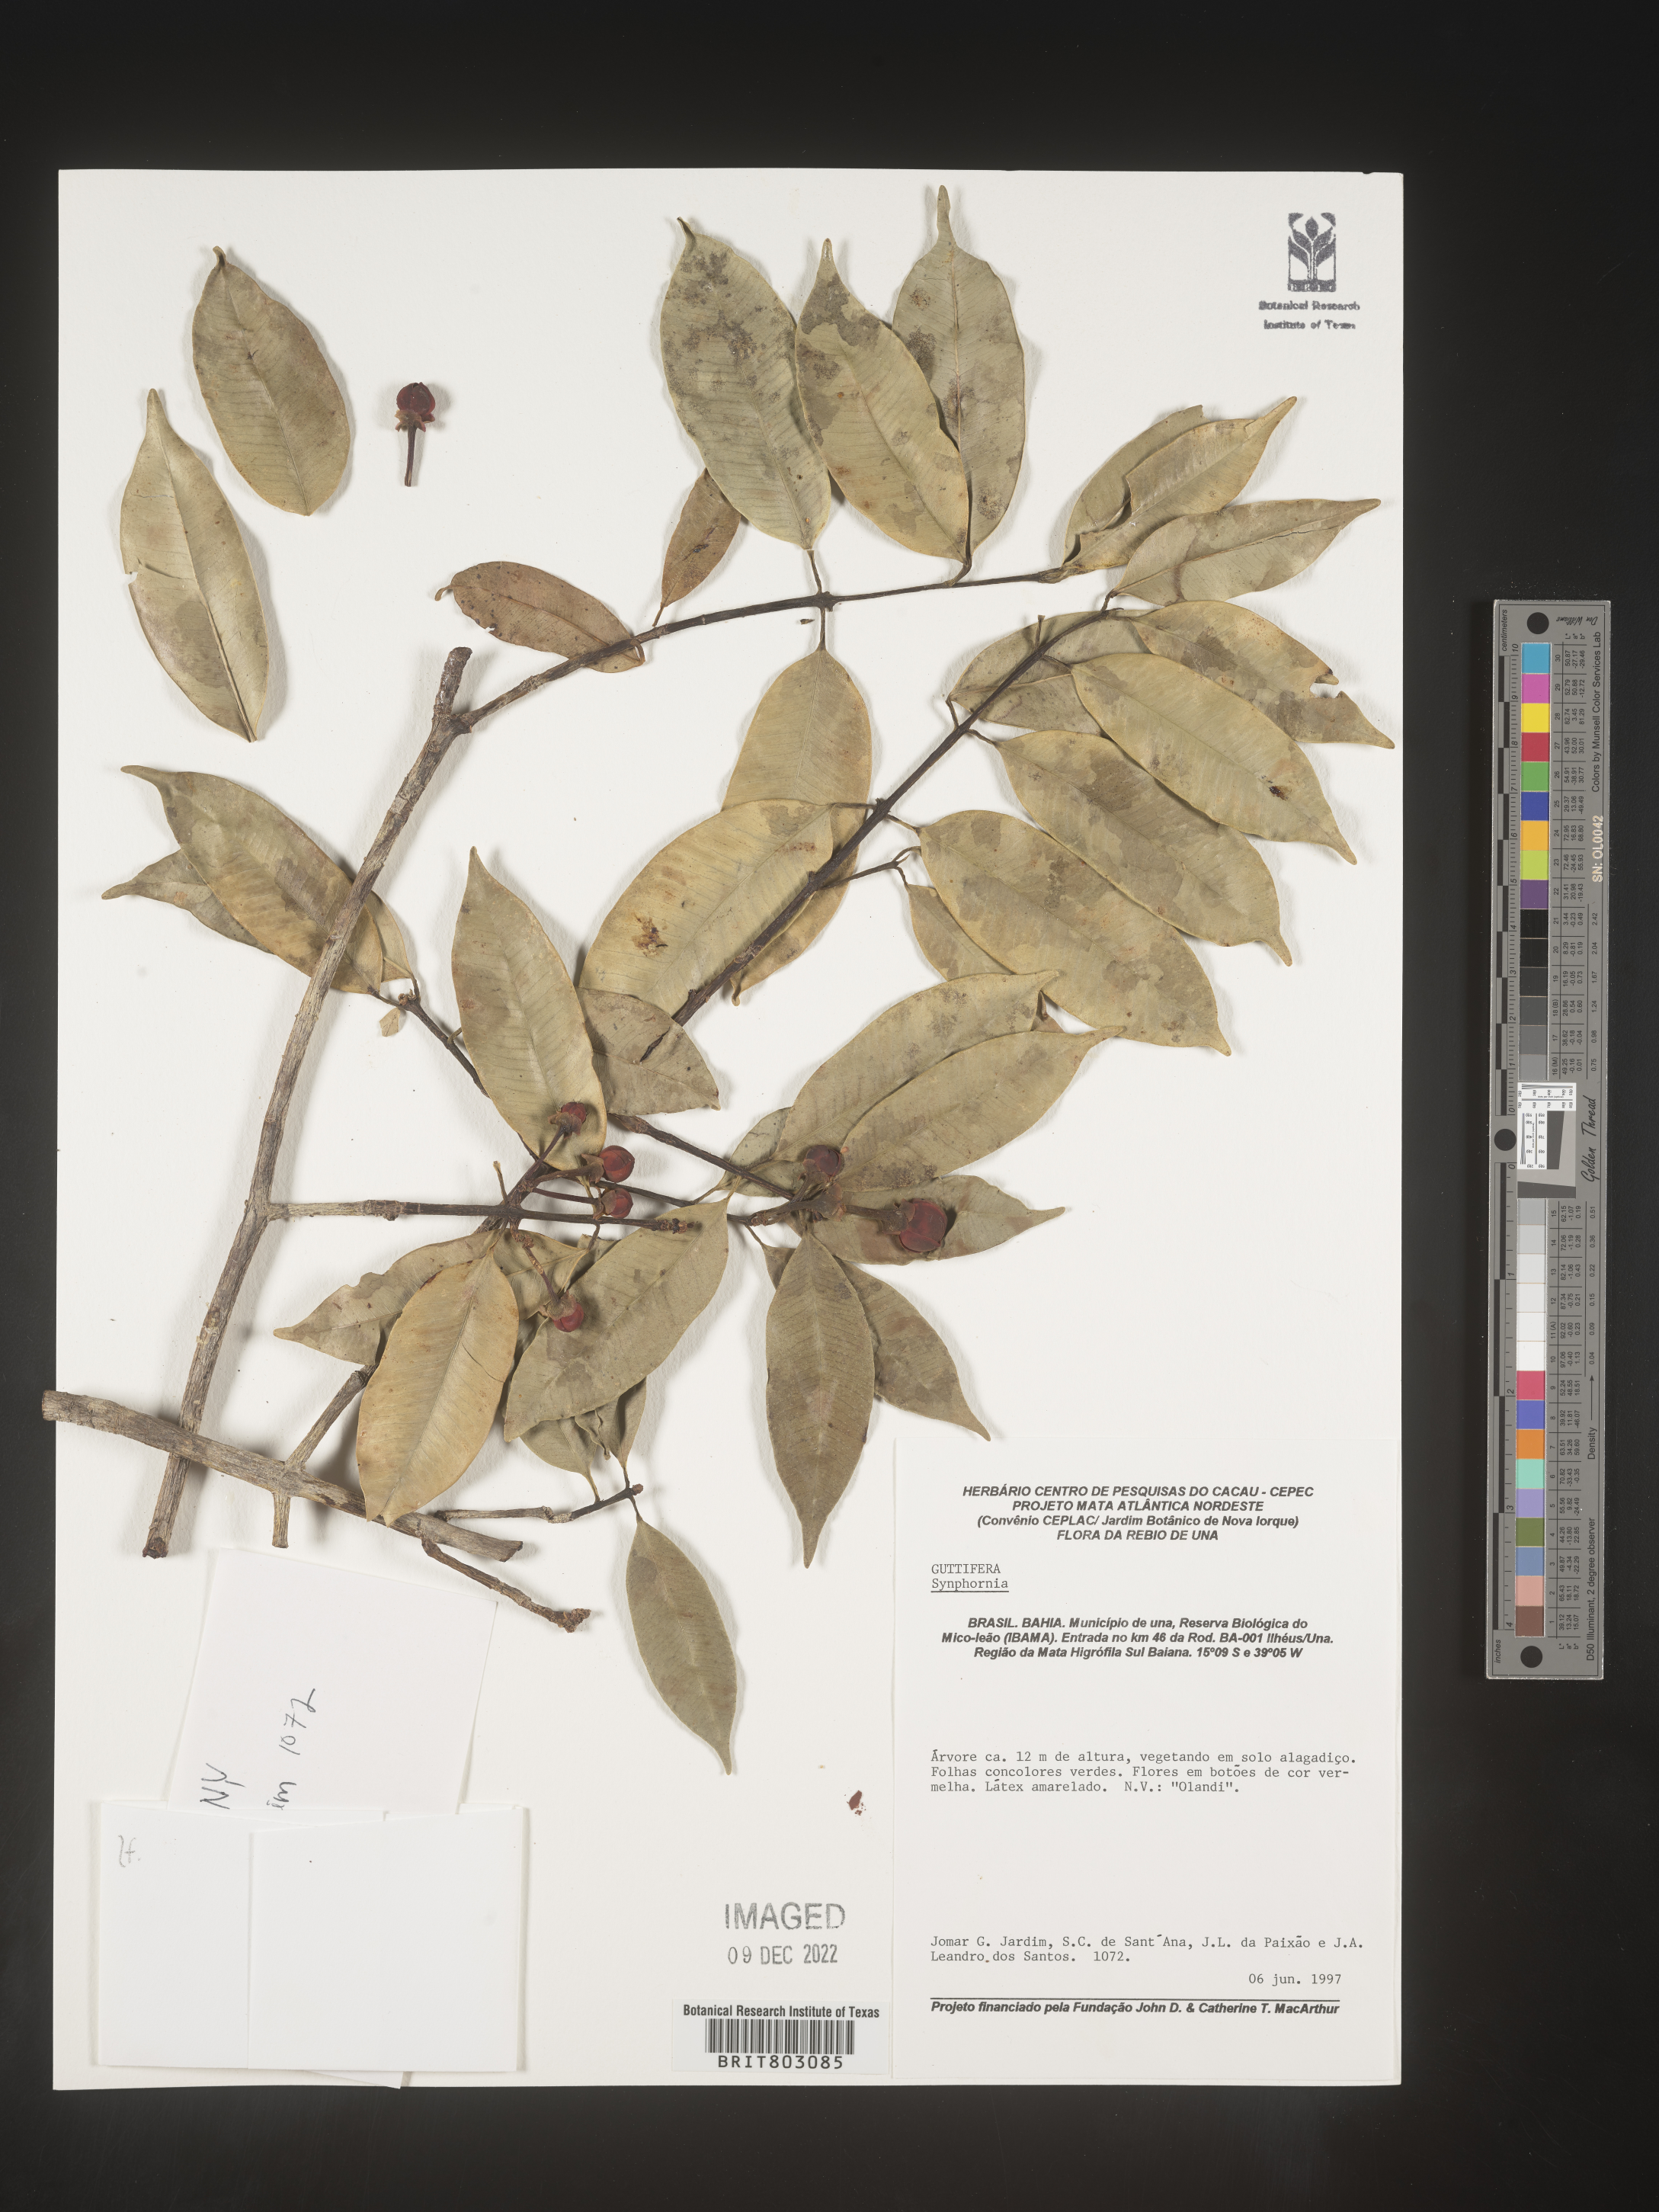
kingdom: Plantae
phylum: Tracheophyta
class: Magnoliopsida
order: Malpighiales
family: Clusiaceae
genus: Symphonia
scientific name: Symphonia
